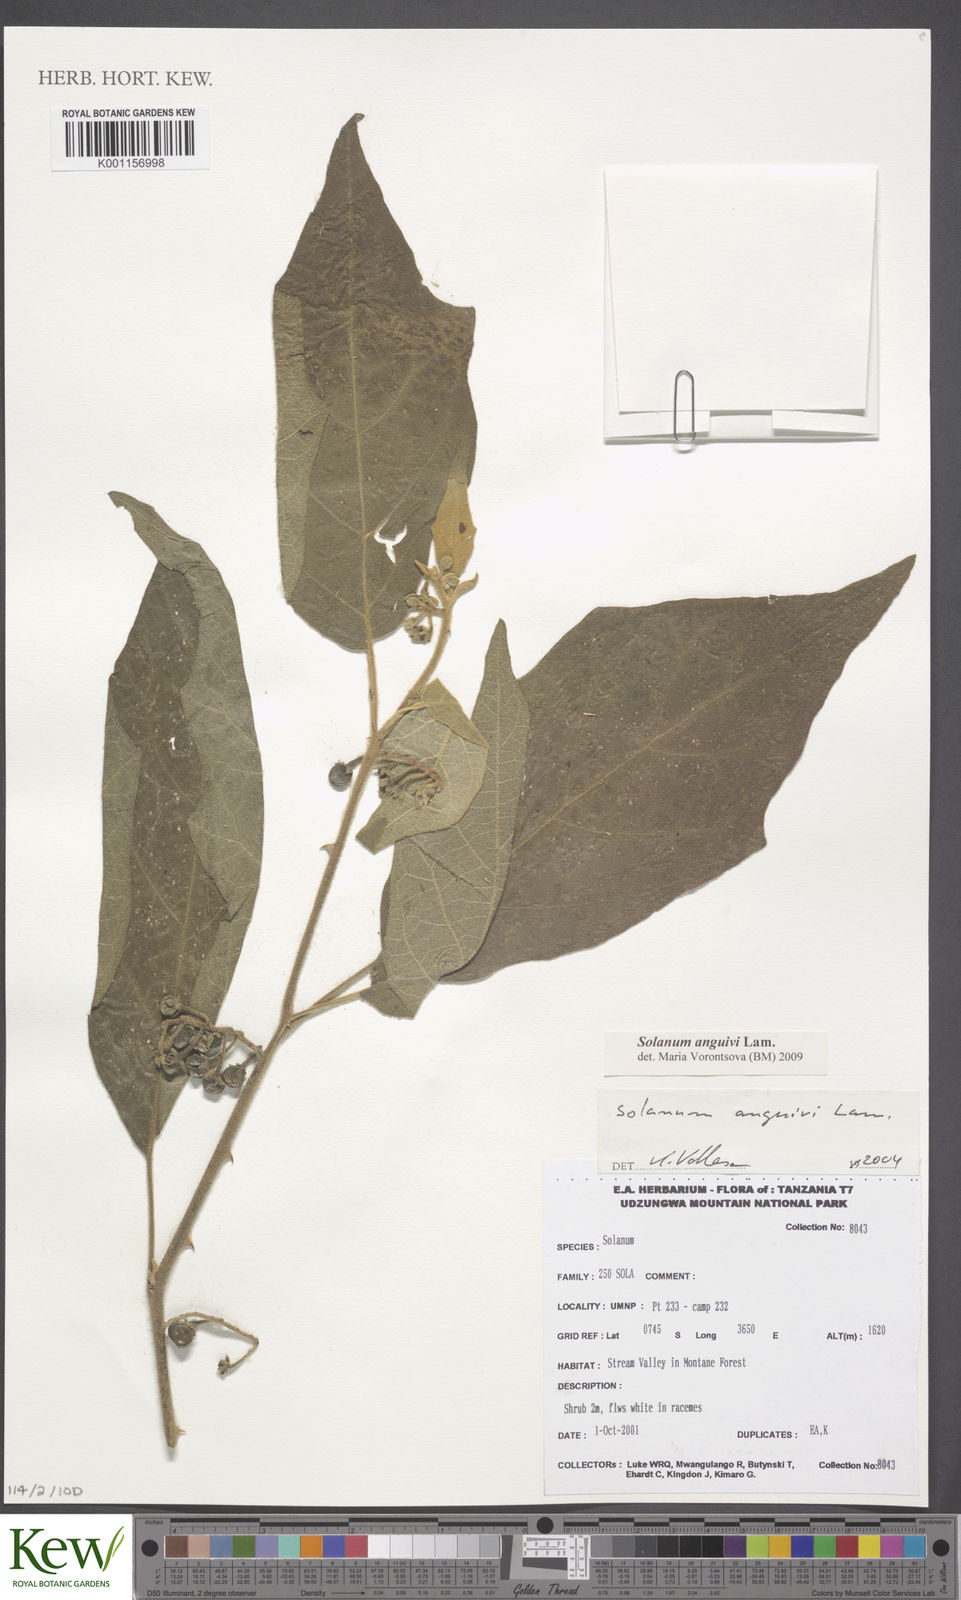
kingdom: Plantae
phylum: Tracheophyta
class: Magnoliopsida
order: Solanales
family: Solanaceae
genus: Solanum
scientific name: Solanum anguivi
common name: Forest bitterberry
